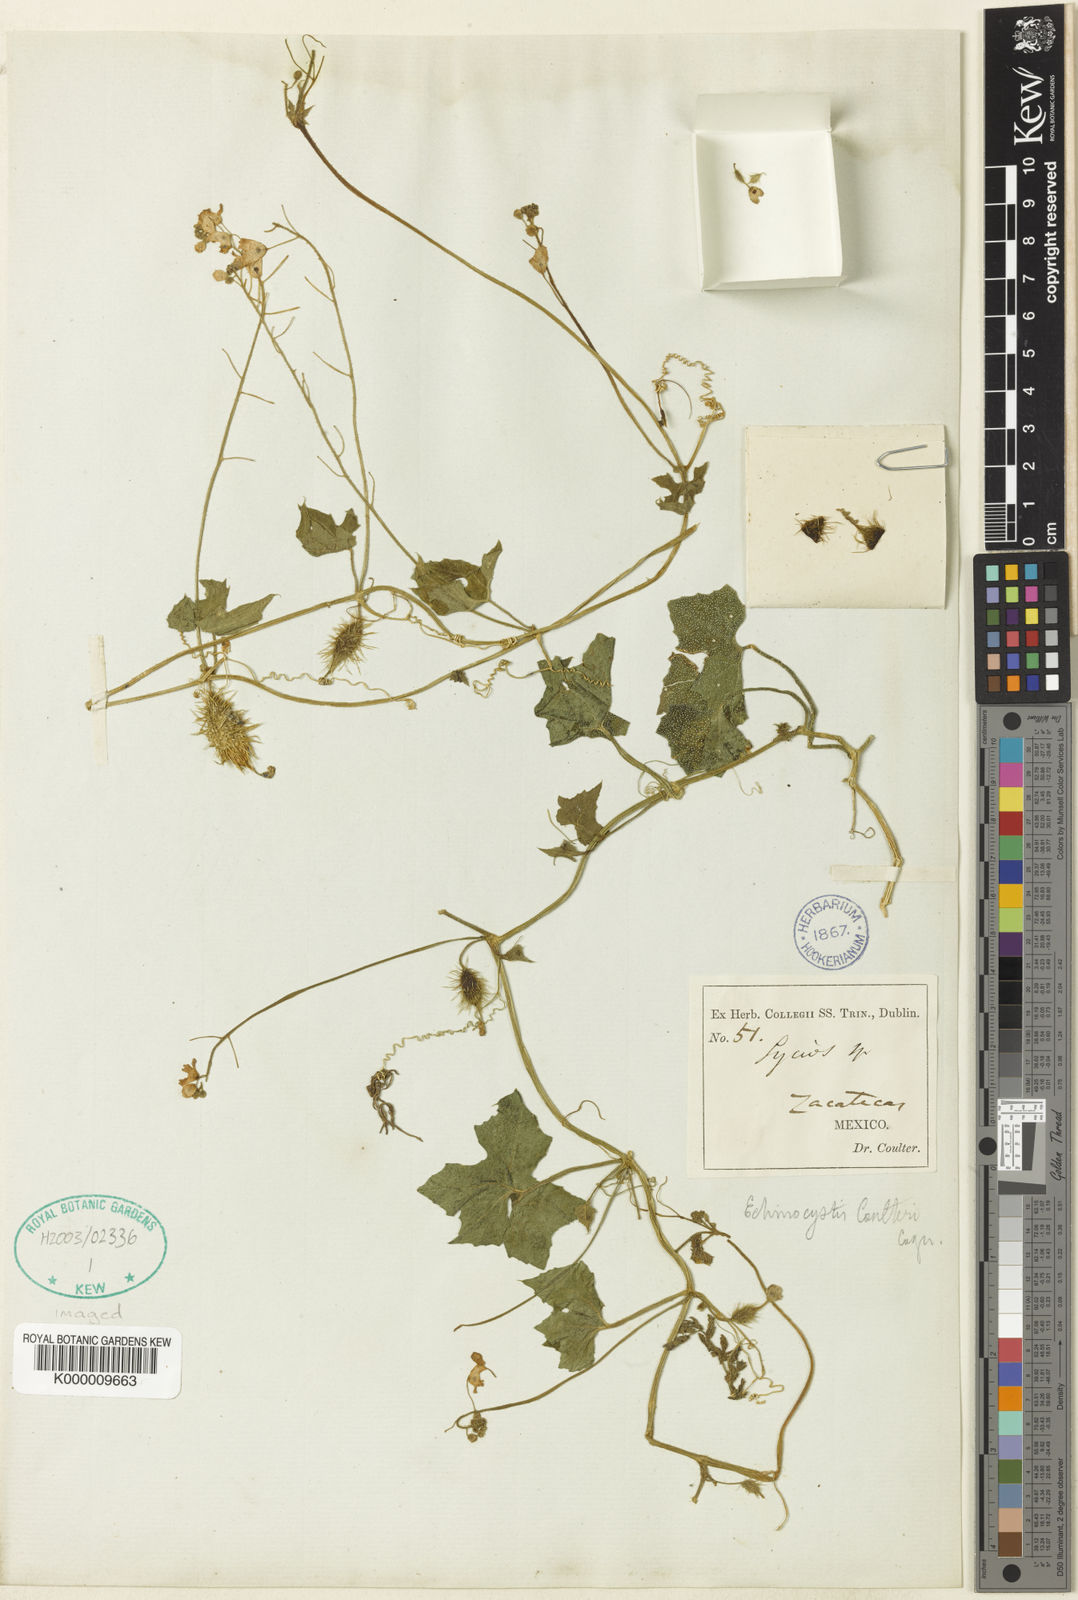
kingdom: Plantae
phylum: Tracheophyta
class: Magnoliopsida
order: Cucurbitales
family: Cucurbitaceae
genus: Echinopepon
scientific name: Echinopepon coulteri
